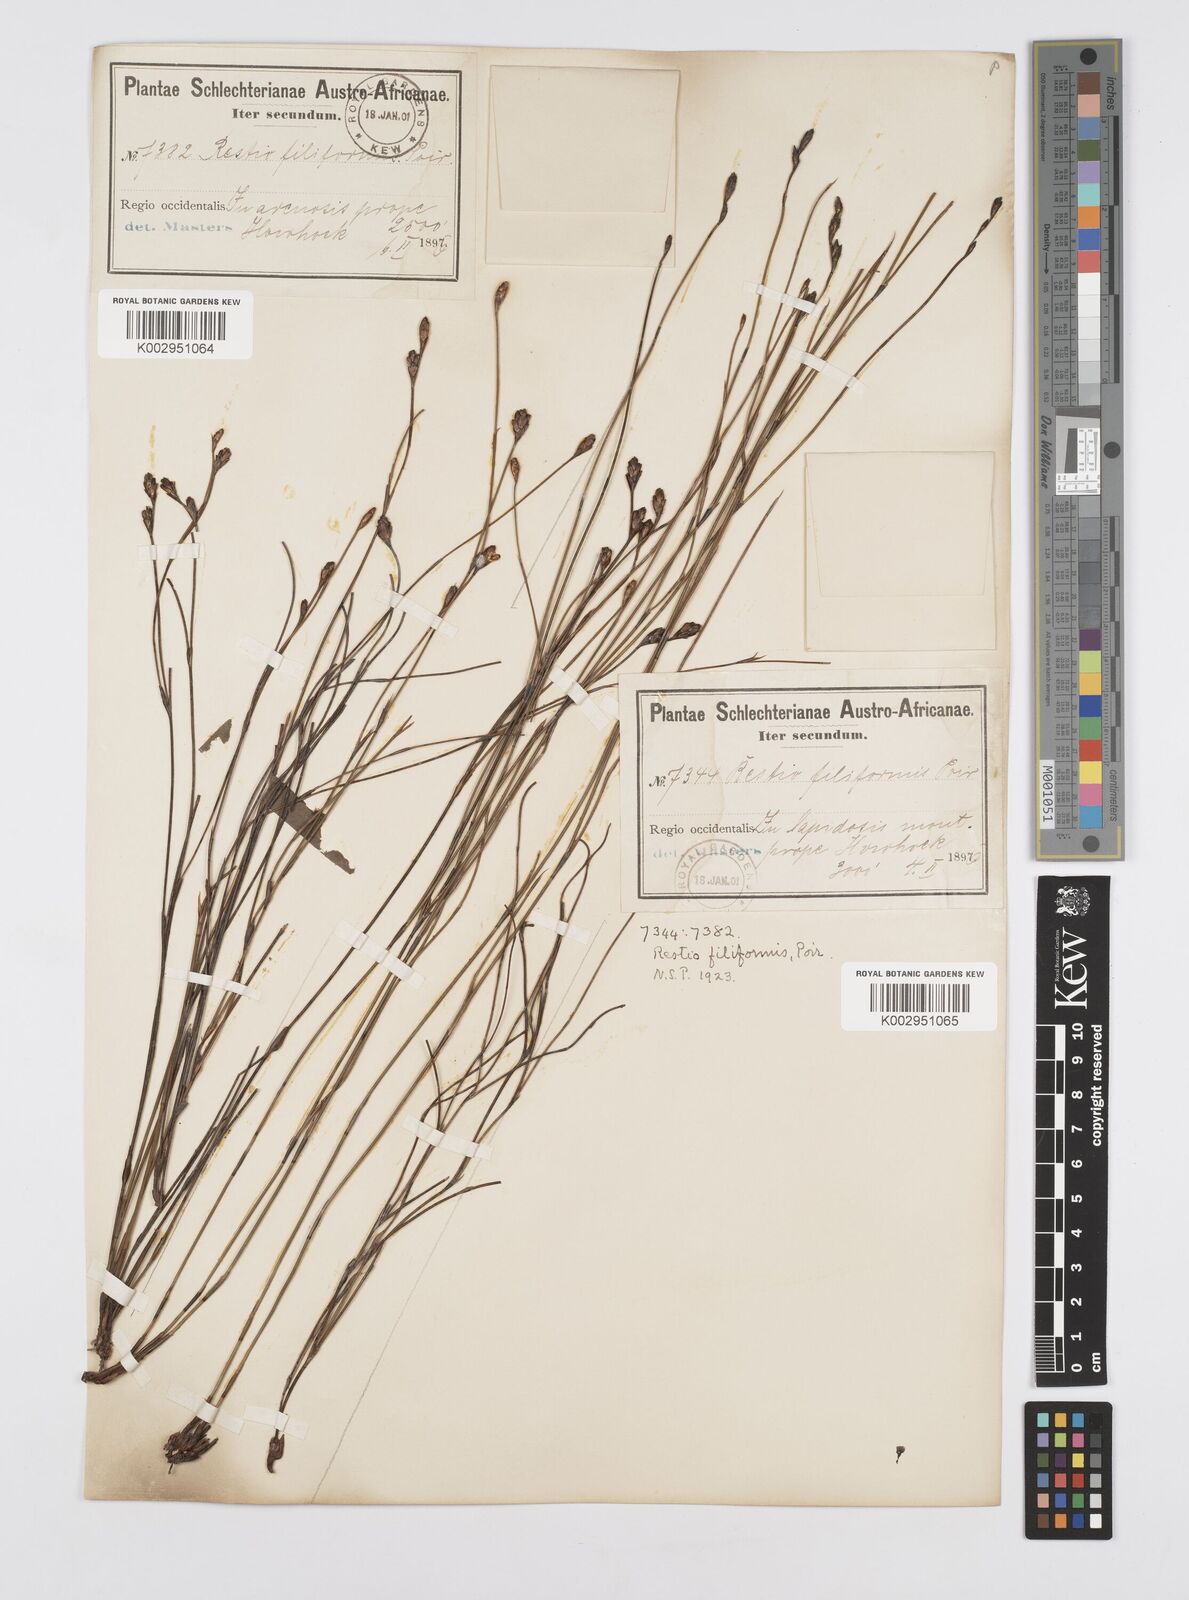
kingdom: Plantae
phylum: Tracheophyta
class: Liliopsida
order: Poales
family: Restionaceae
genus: Restio
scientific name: Restio filiformis
